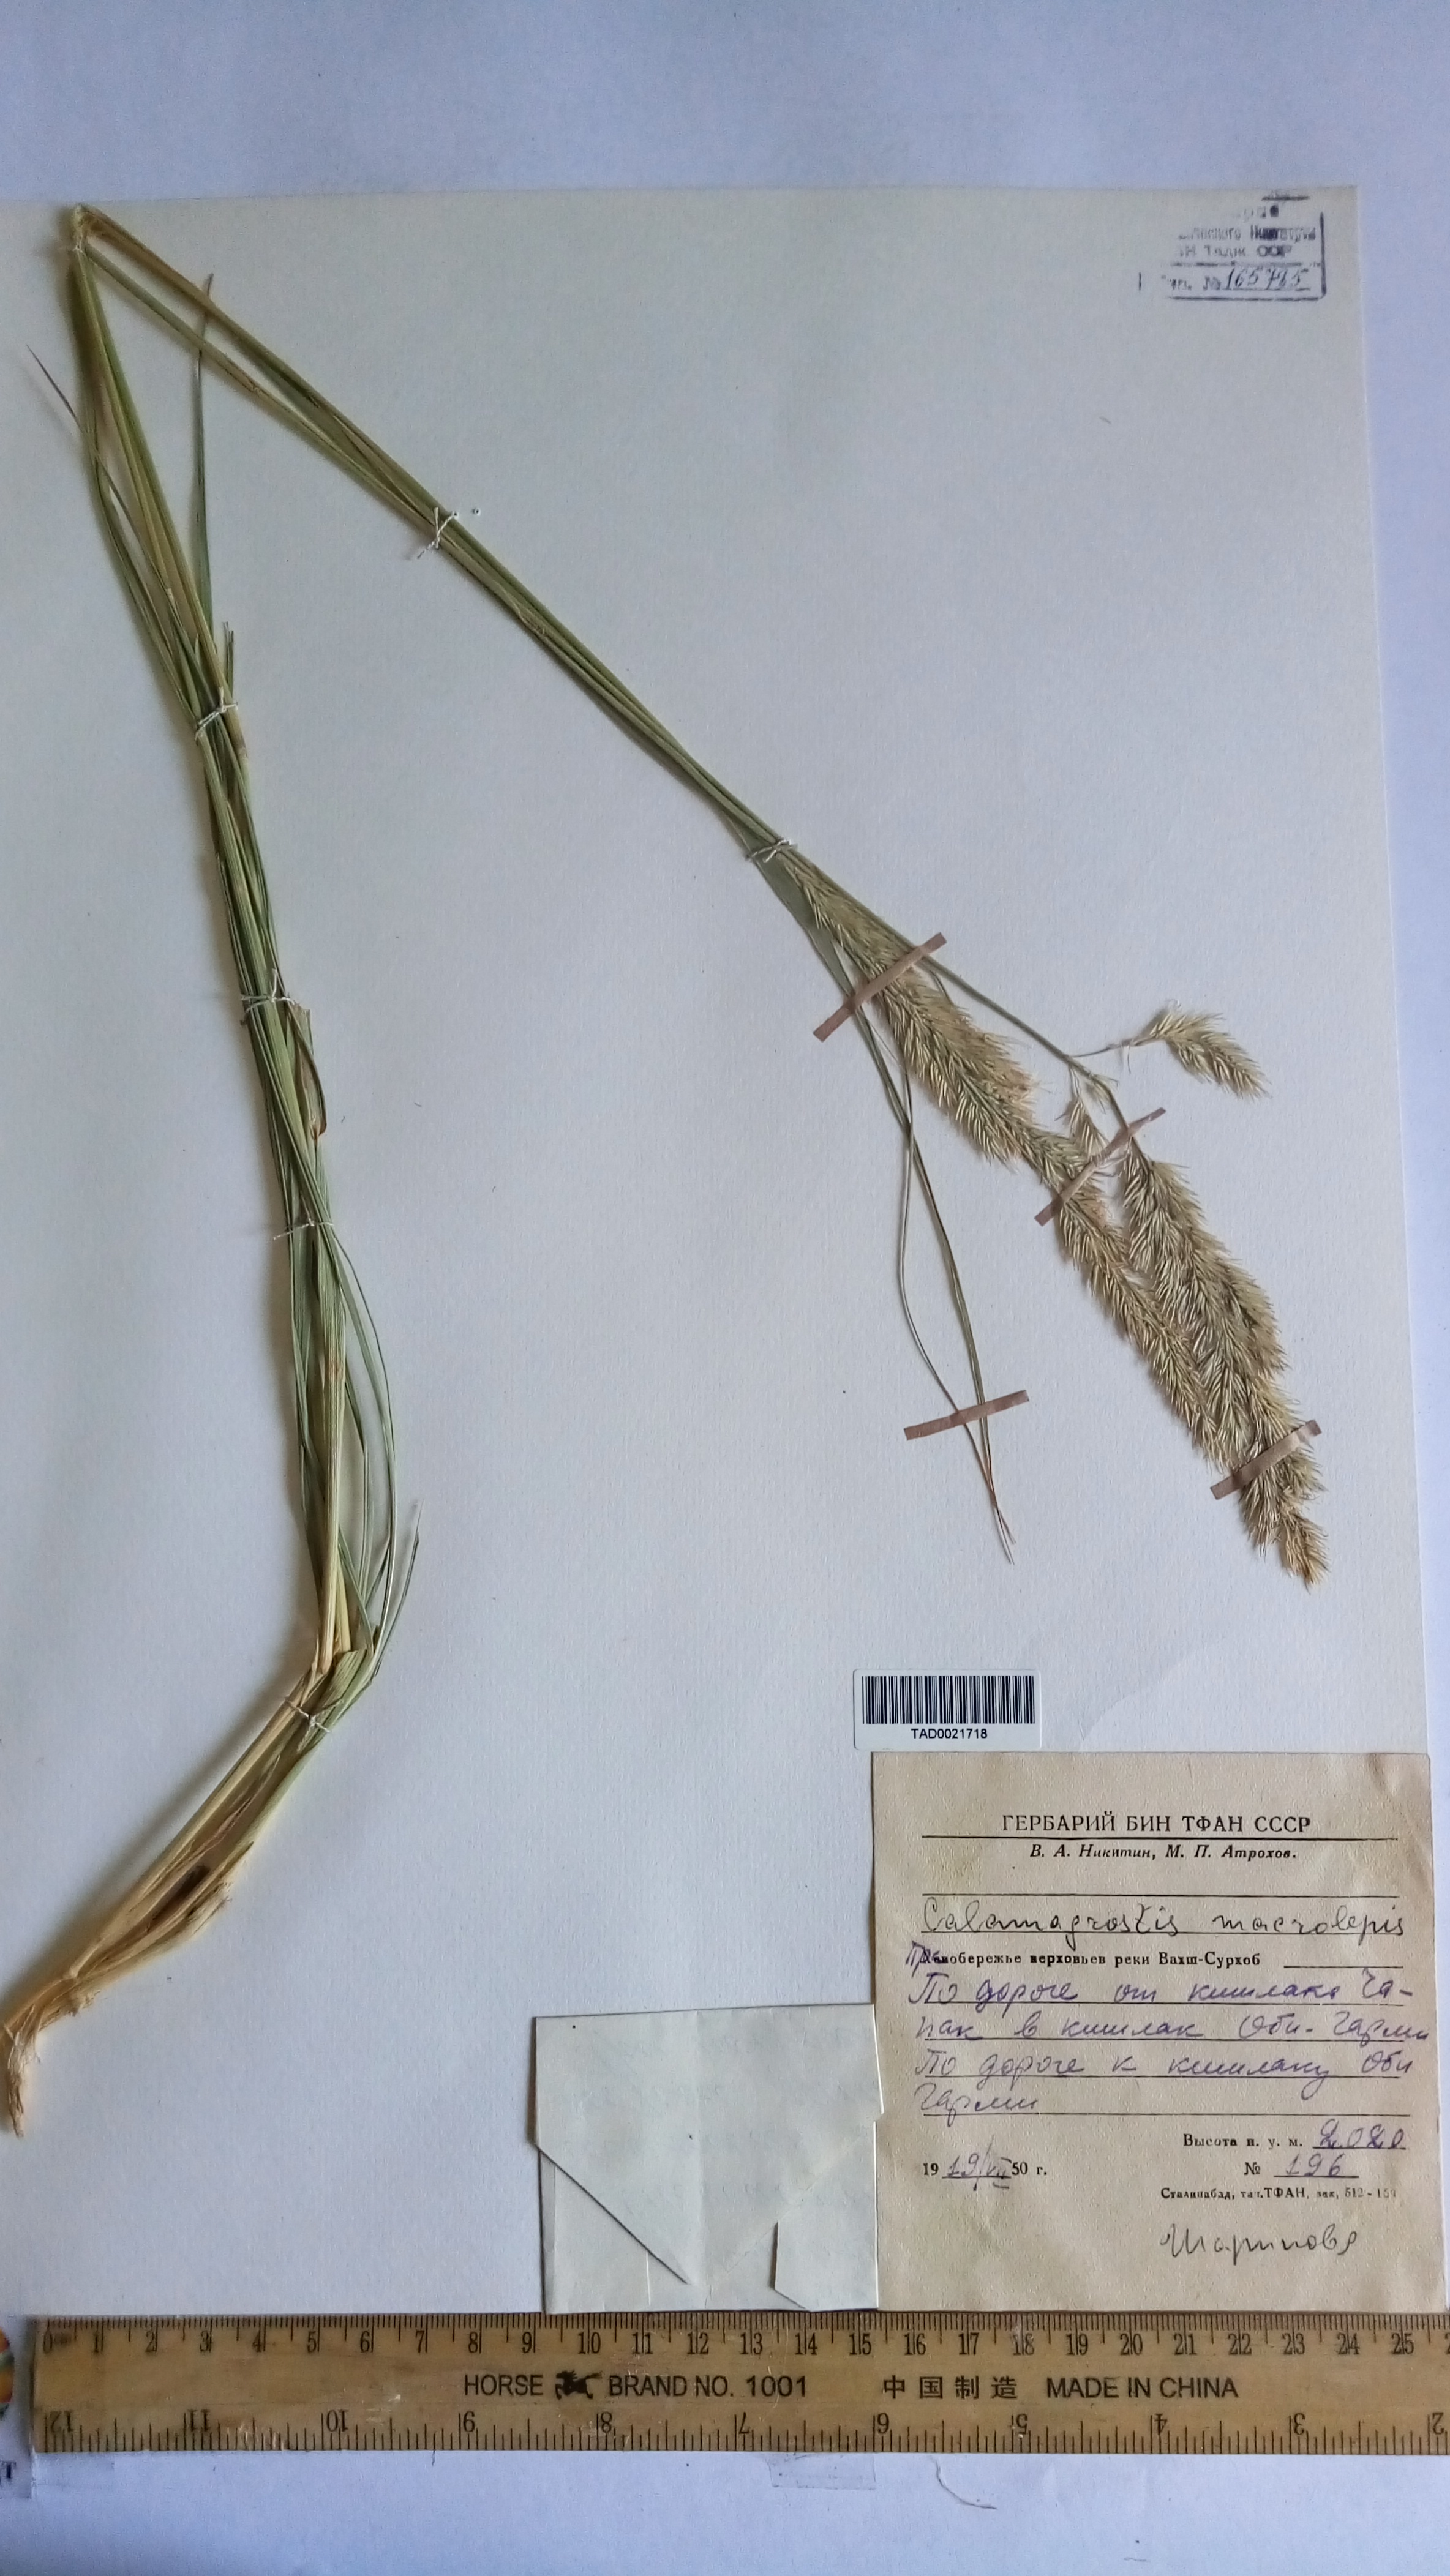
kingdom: Plantae
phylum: Tracheophyta
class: Liliopsida
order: Poales
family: Poaceae
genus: Calamagrostis
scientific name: Calamagrostis macrolepis
